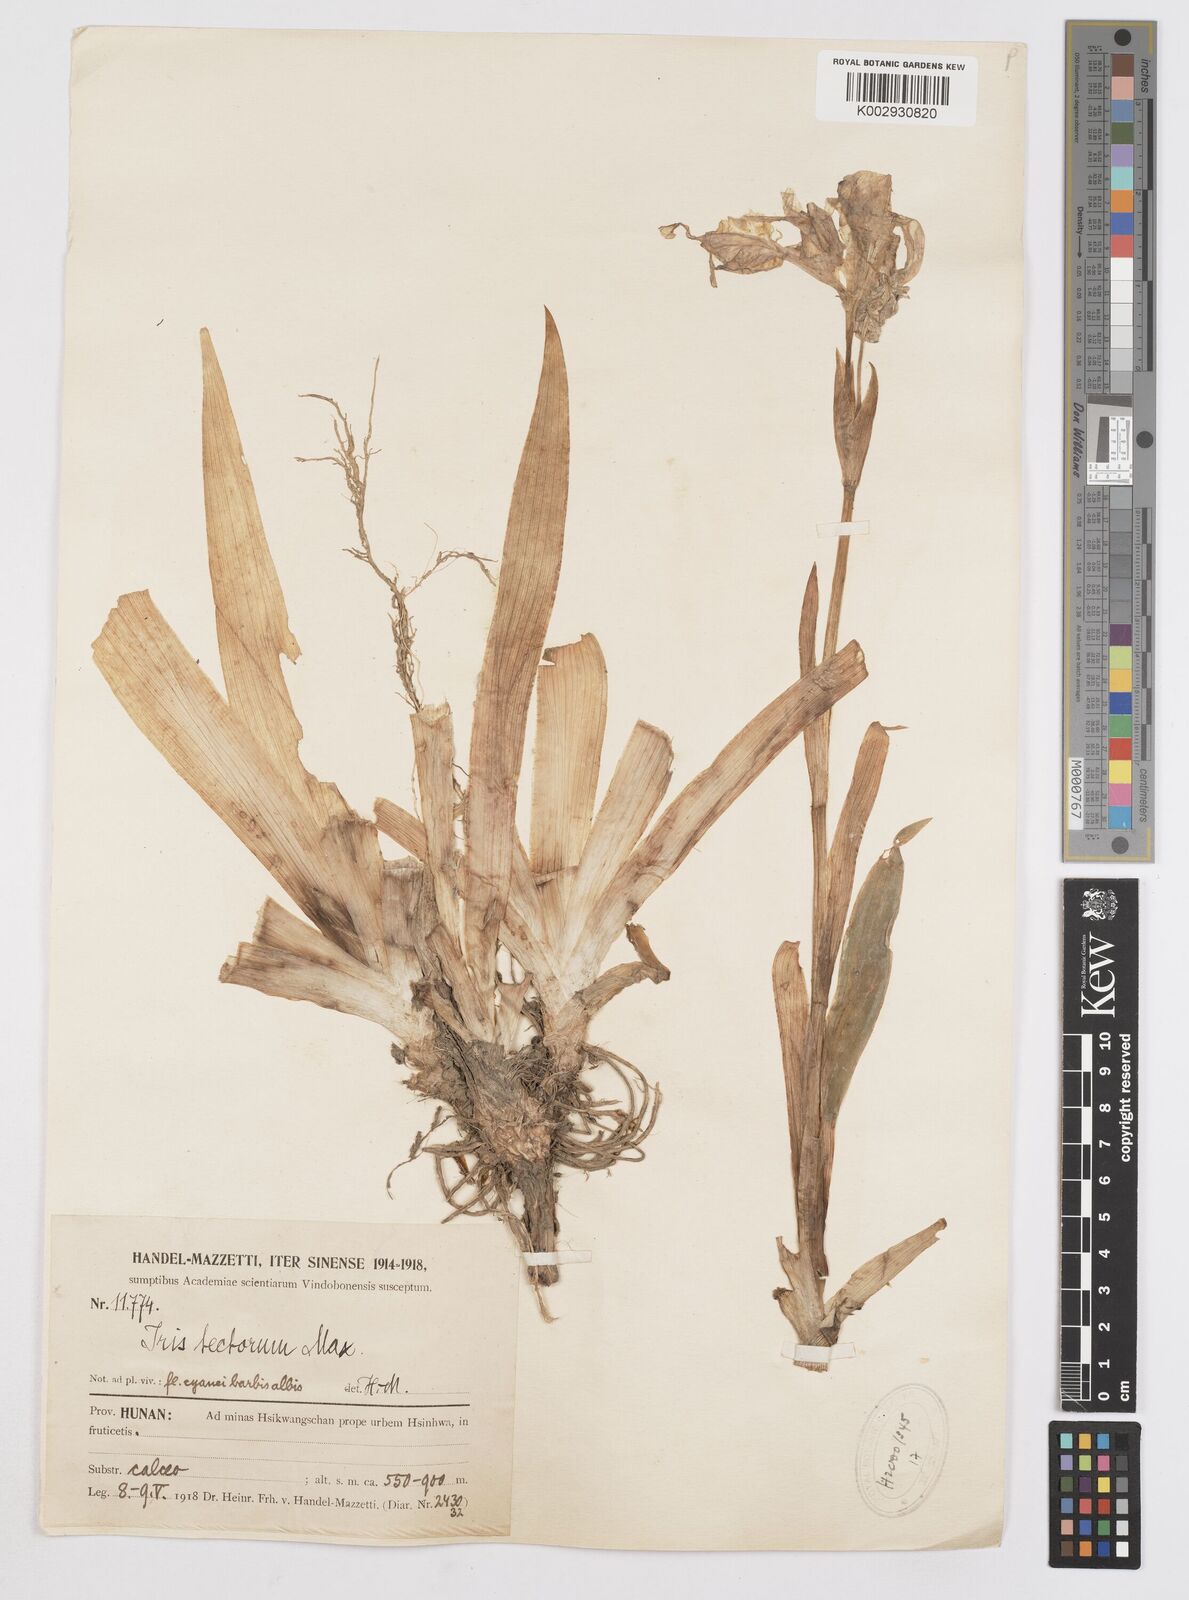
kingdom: Plantae
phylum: Tracheophyta
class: Liliopsida
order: Asparagales
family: Iridaceae
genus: Iris
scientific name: Iris tectorum
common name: Wall iris
